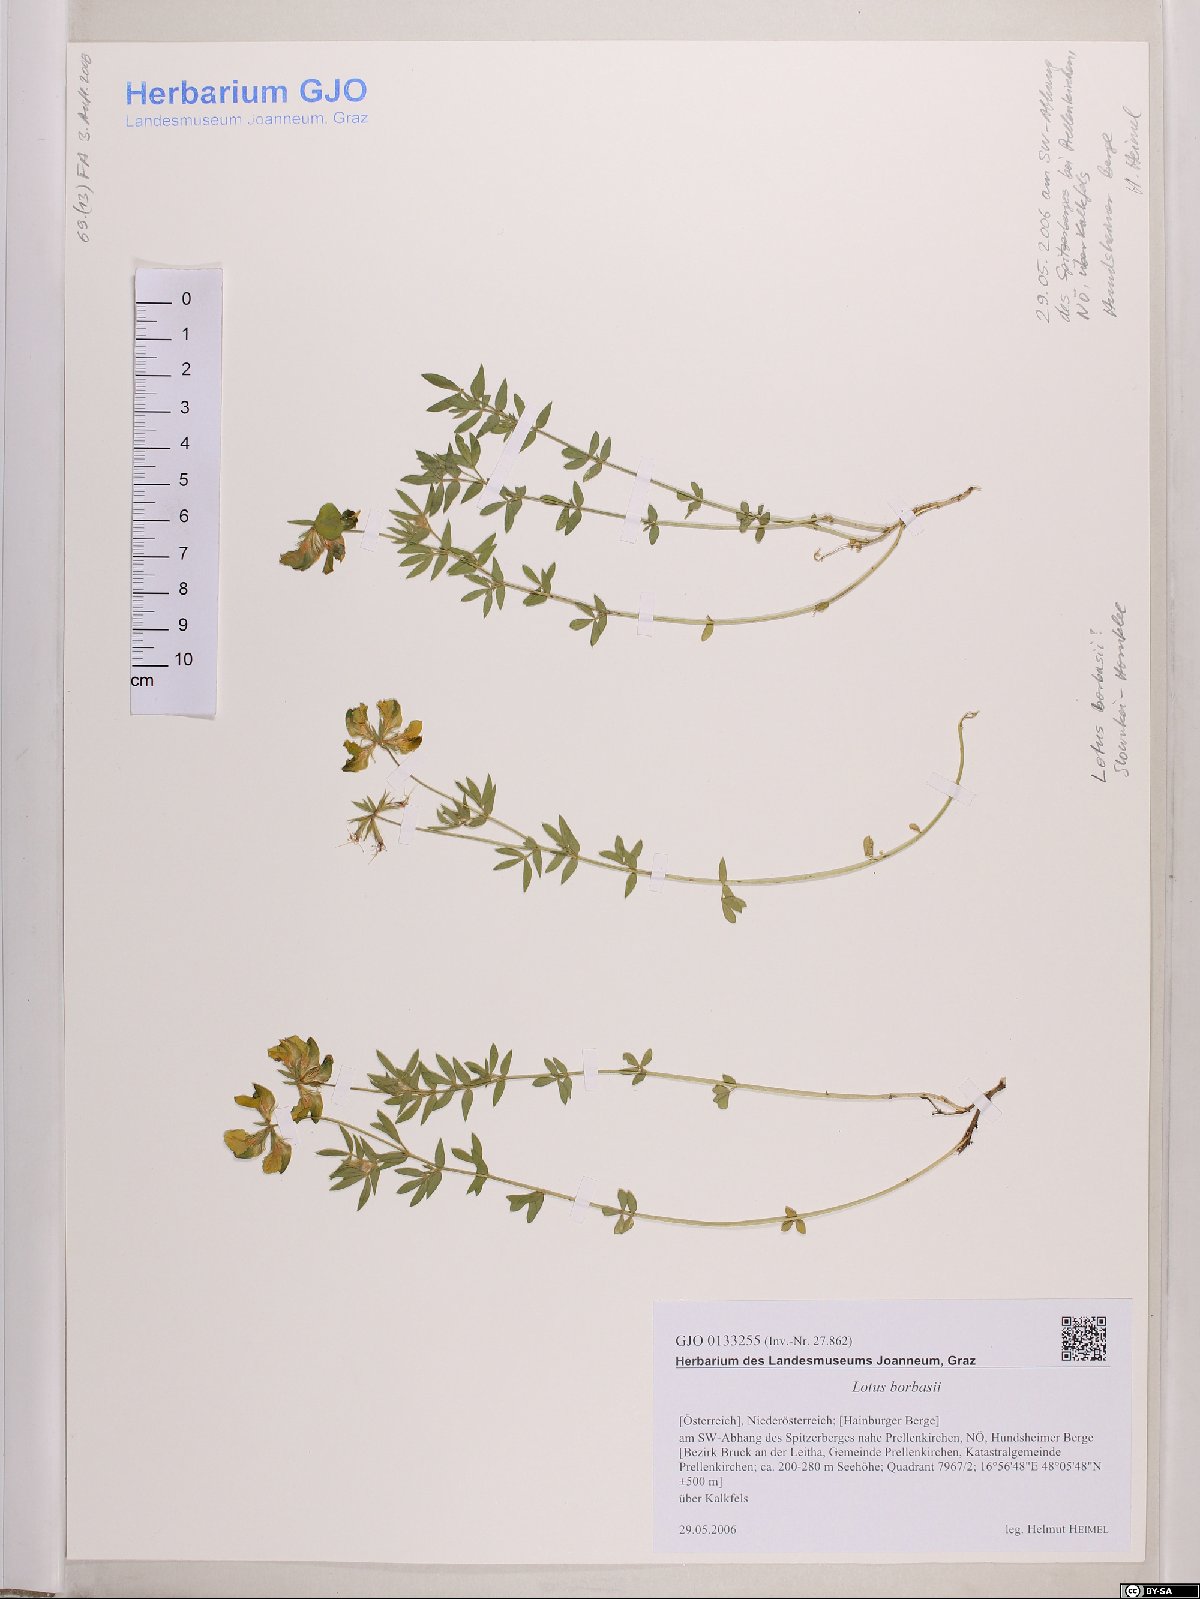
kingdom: Plantae
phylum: Tracheophyta
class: Magnoliopsida
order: Fabales
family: Fabaceae
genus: Lotus
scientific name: Lotus borbasii
